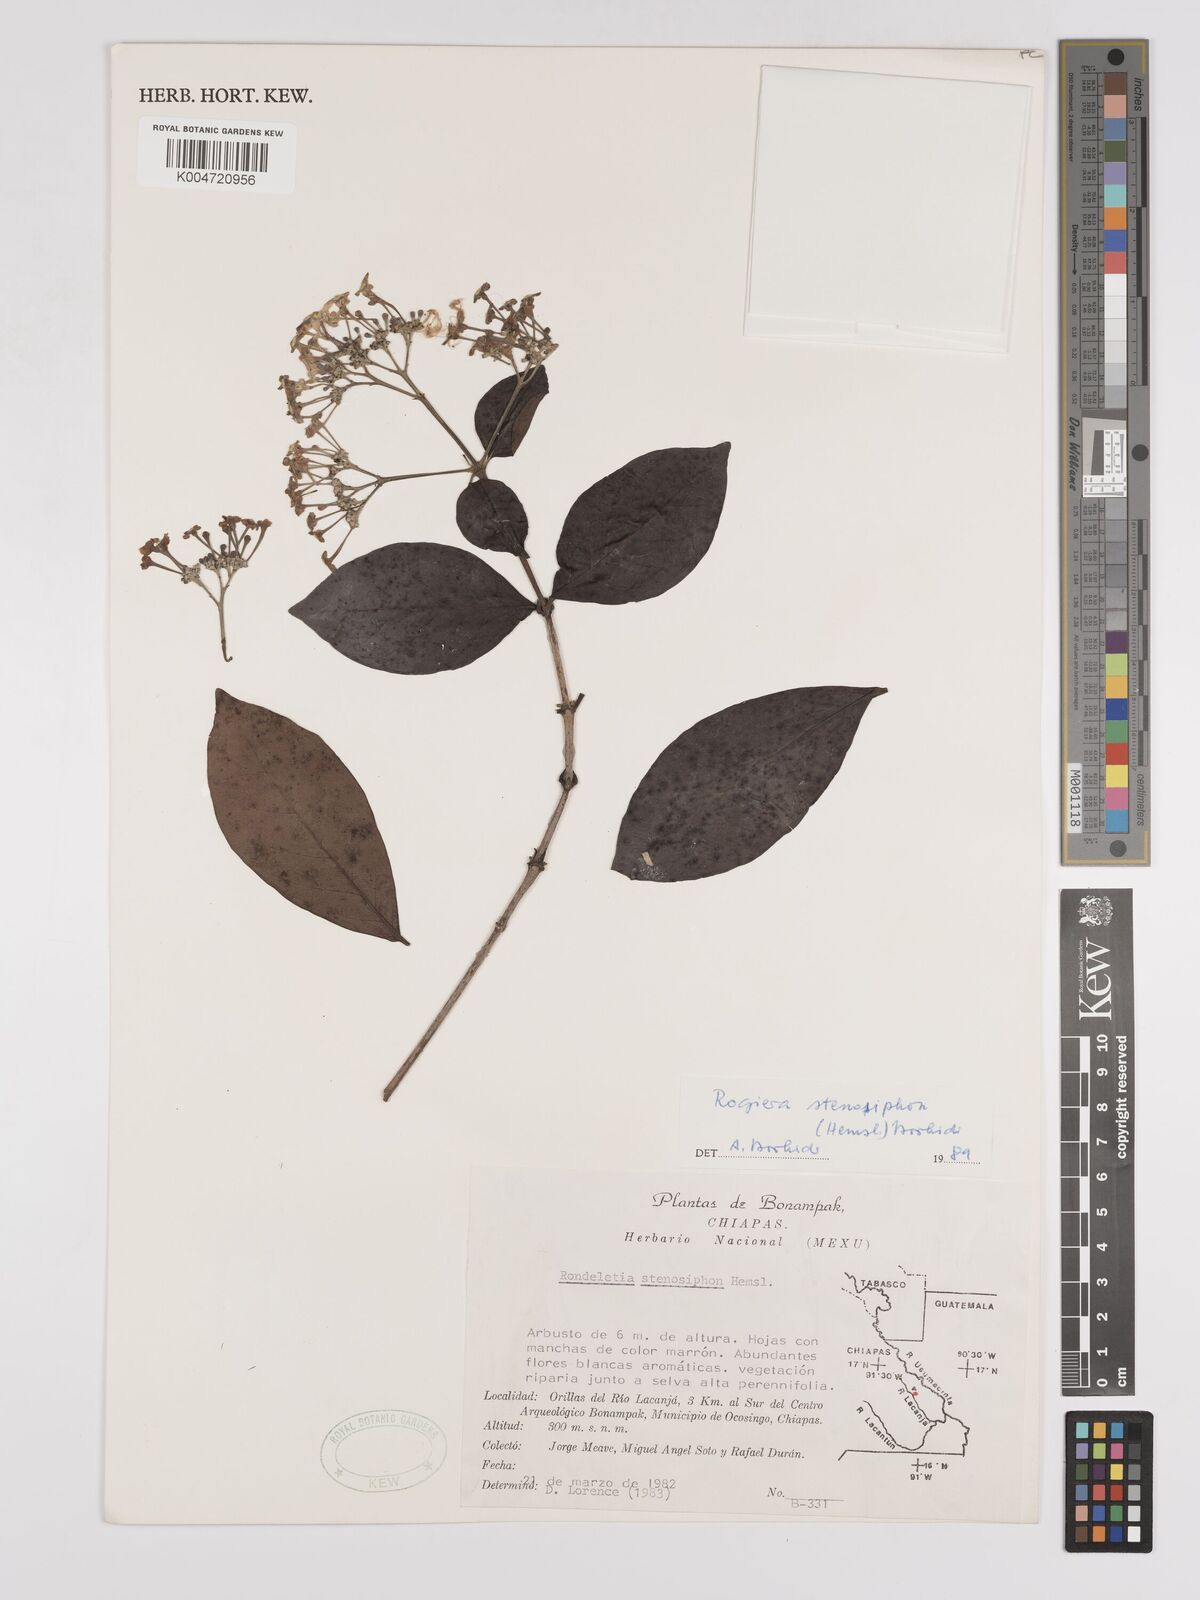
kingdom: Plantae
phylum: Tracheophyta
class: Magnoliopsida
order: Gentianales
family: Rubiaceae
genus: Rogiera
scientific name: Rogiera stenosiphon
